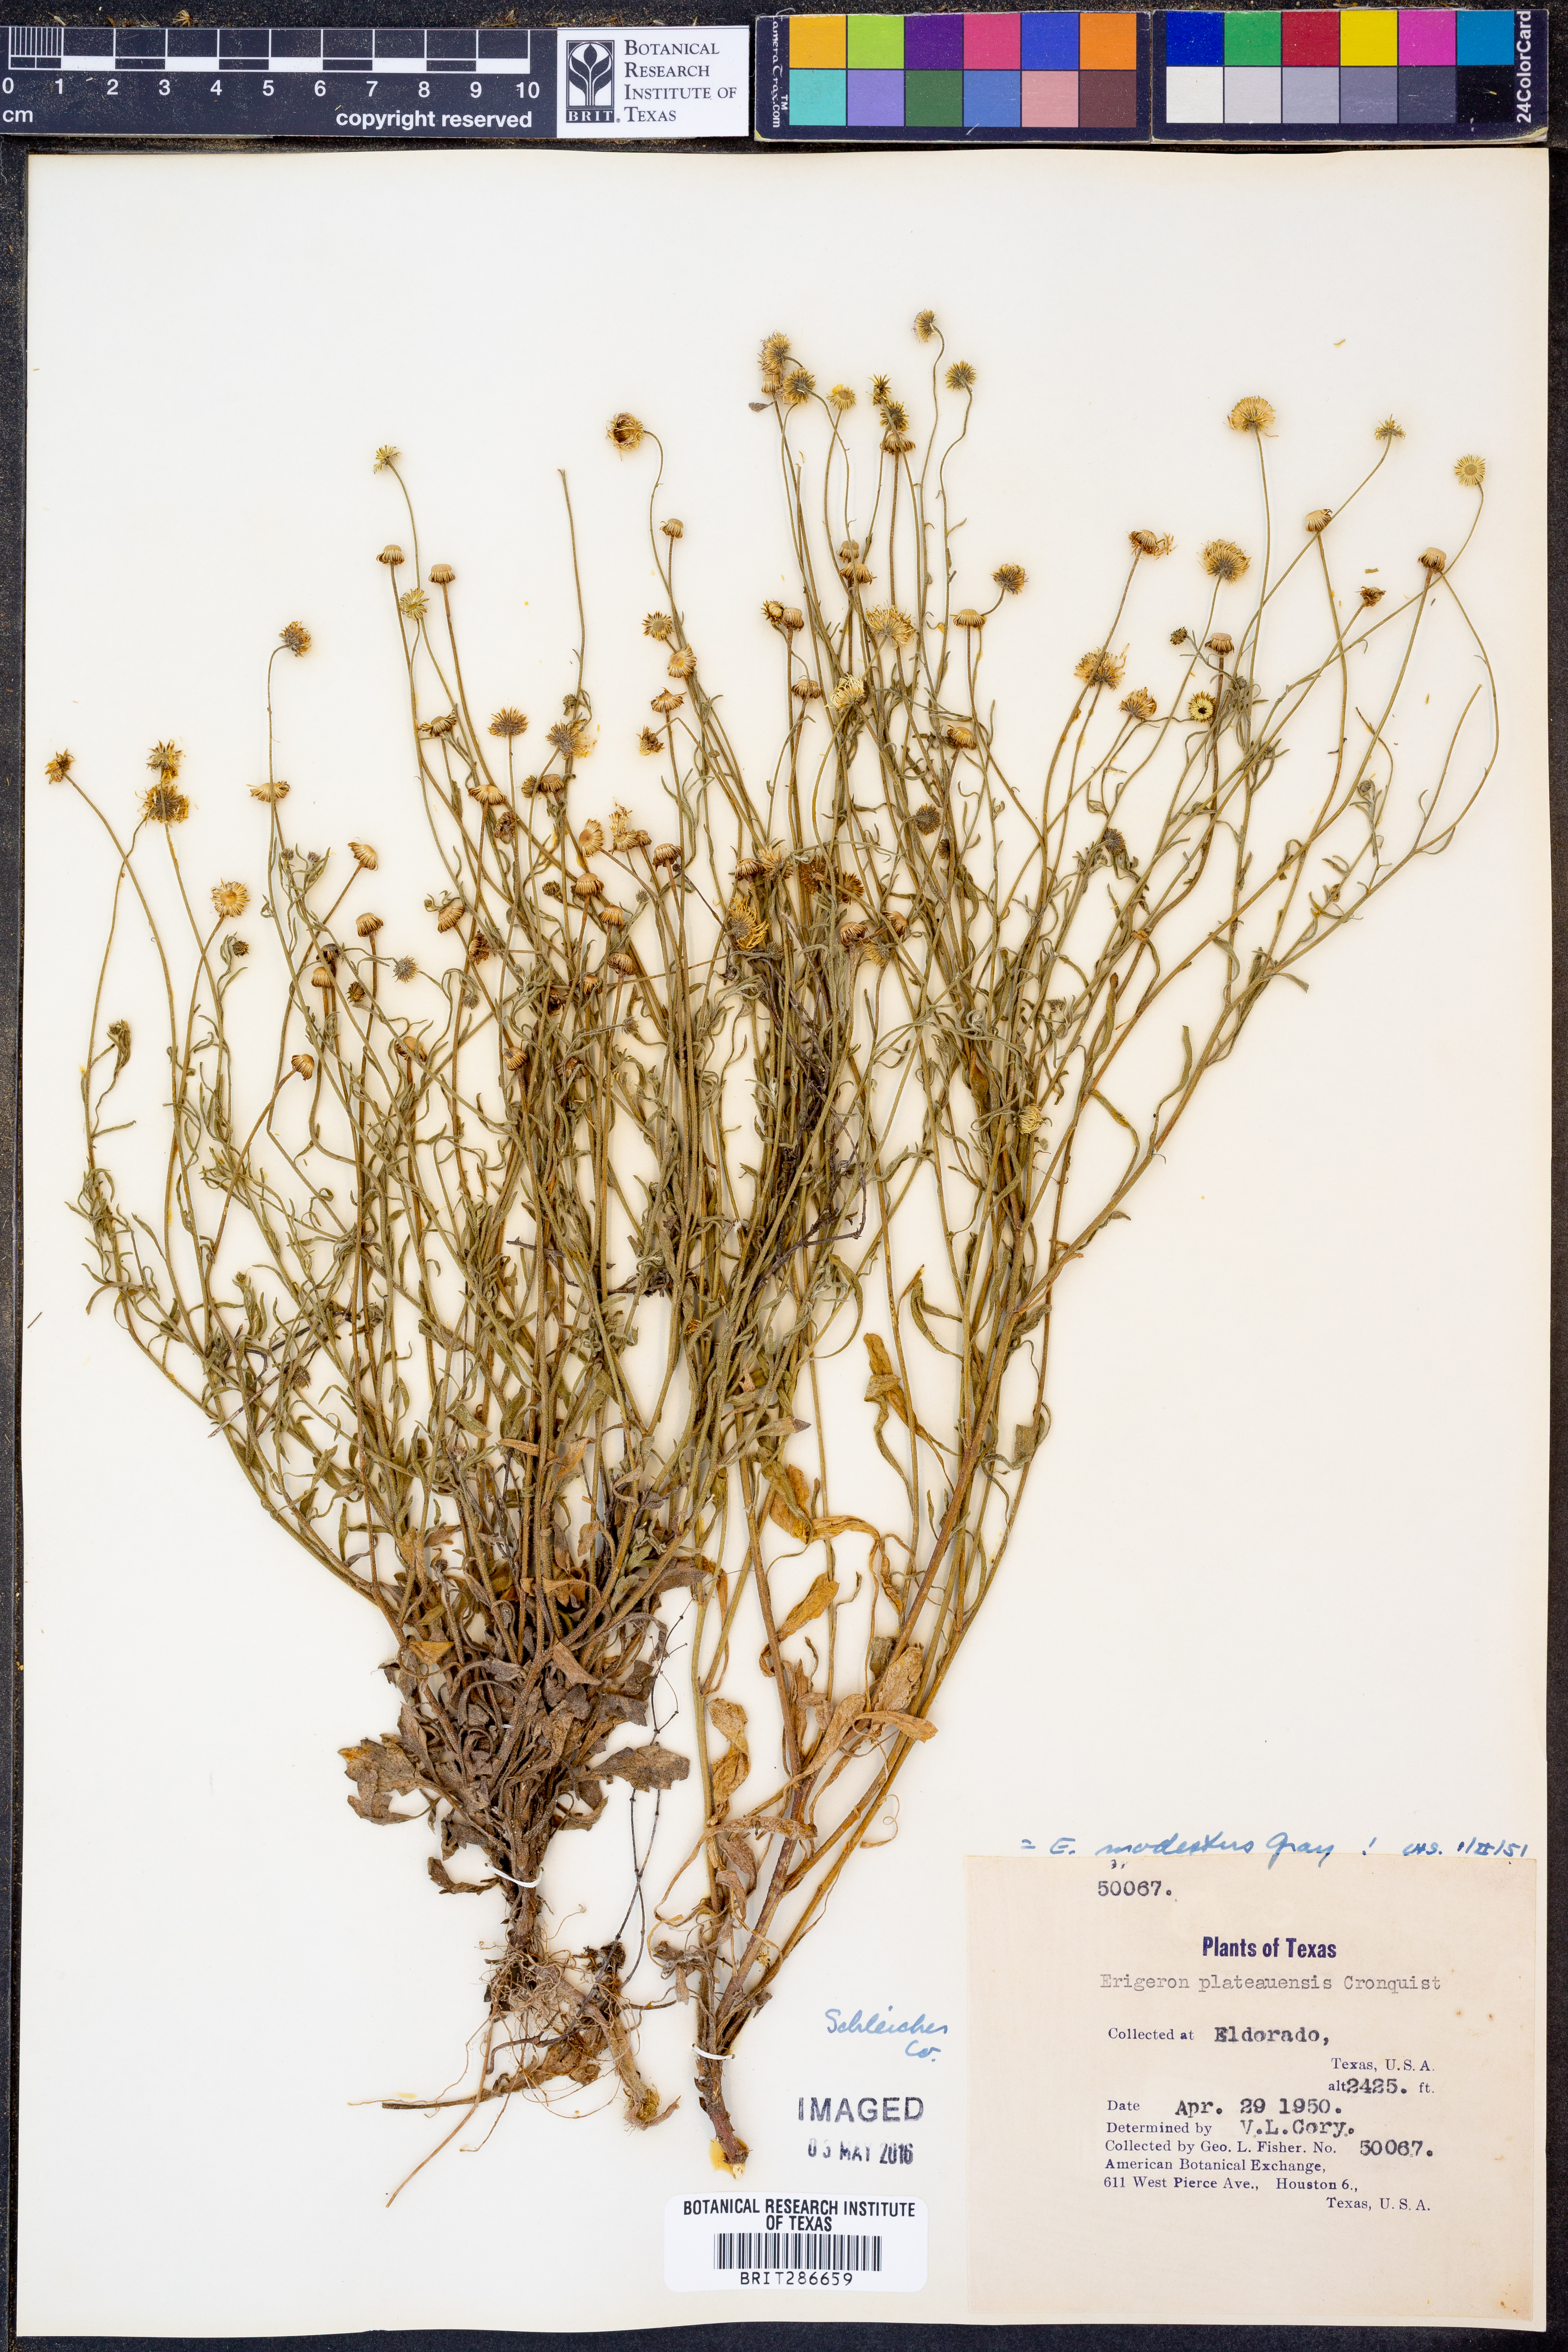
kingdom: Plantae
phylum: Tracheophyta
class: Magnoliopsida
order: Asterales
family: Asteraceae
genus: Erigeron
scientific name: Erigeron modestus
